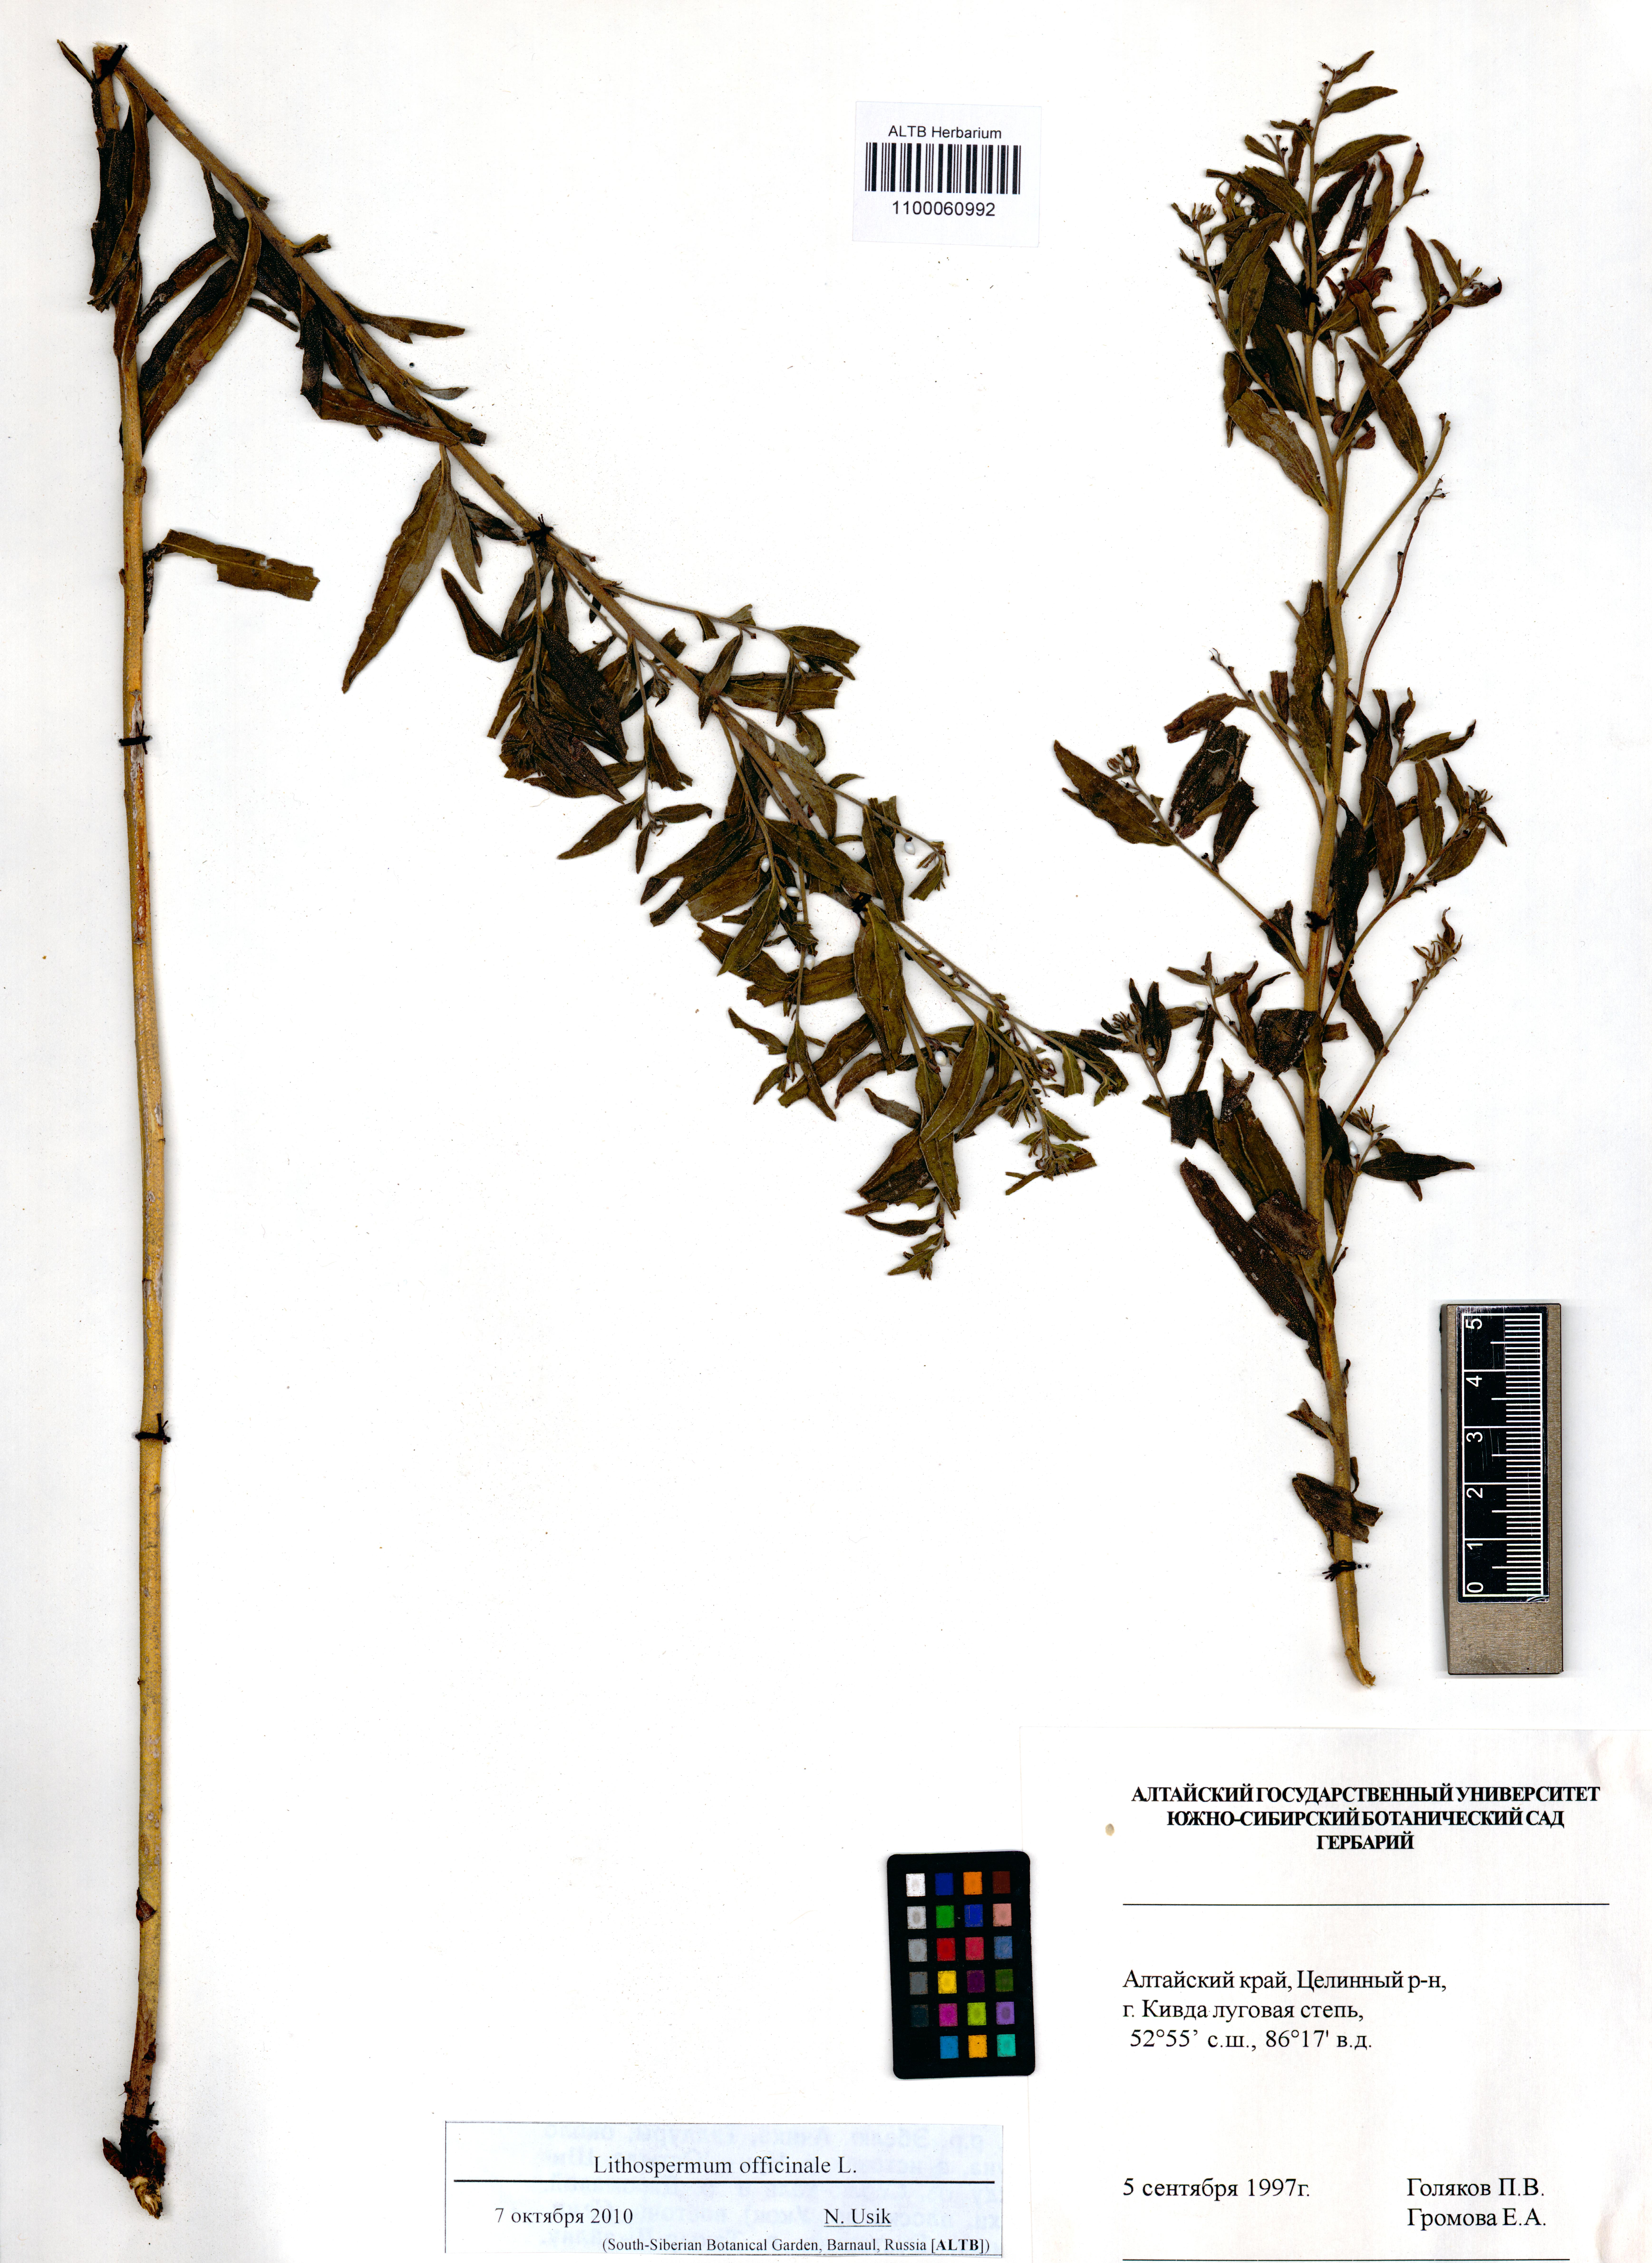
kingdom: Plantae
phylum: Tracheophyta
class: Magnoliopsida
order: Boraginales
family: Boraginaceae
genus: Lithospermum
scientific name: Lithospermum officinale
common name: Common gromwell
